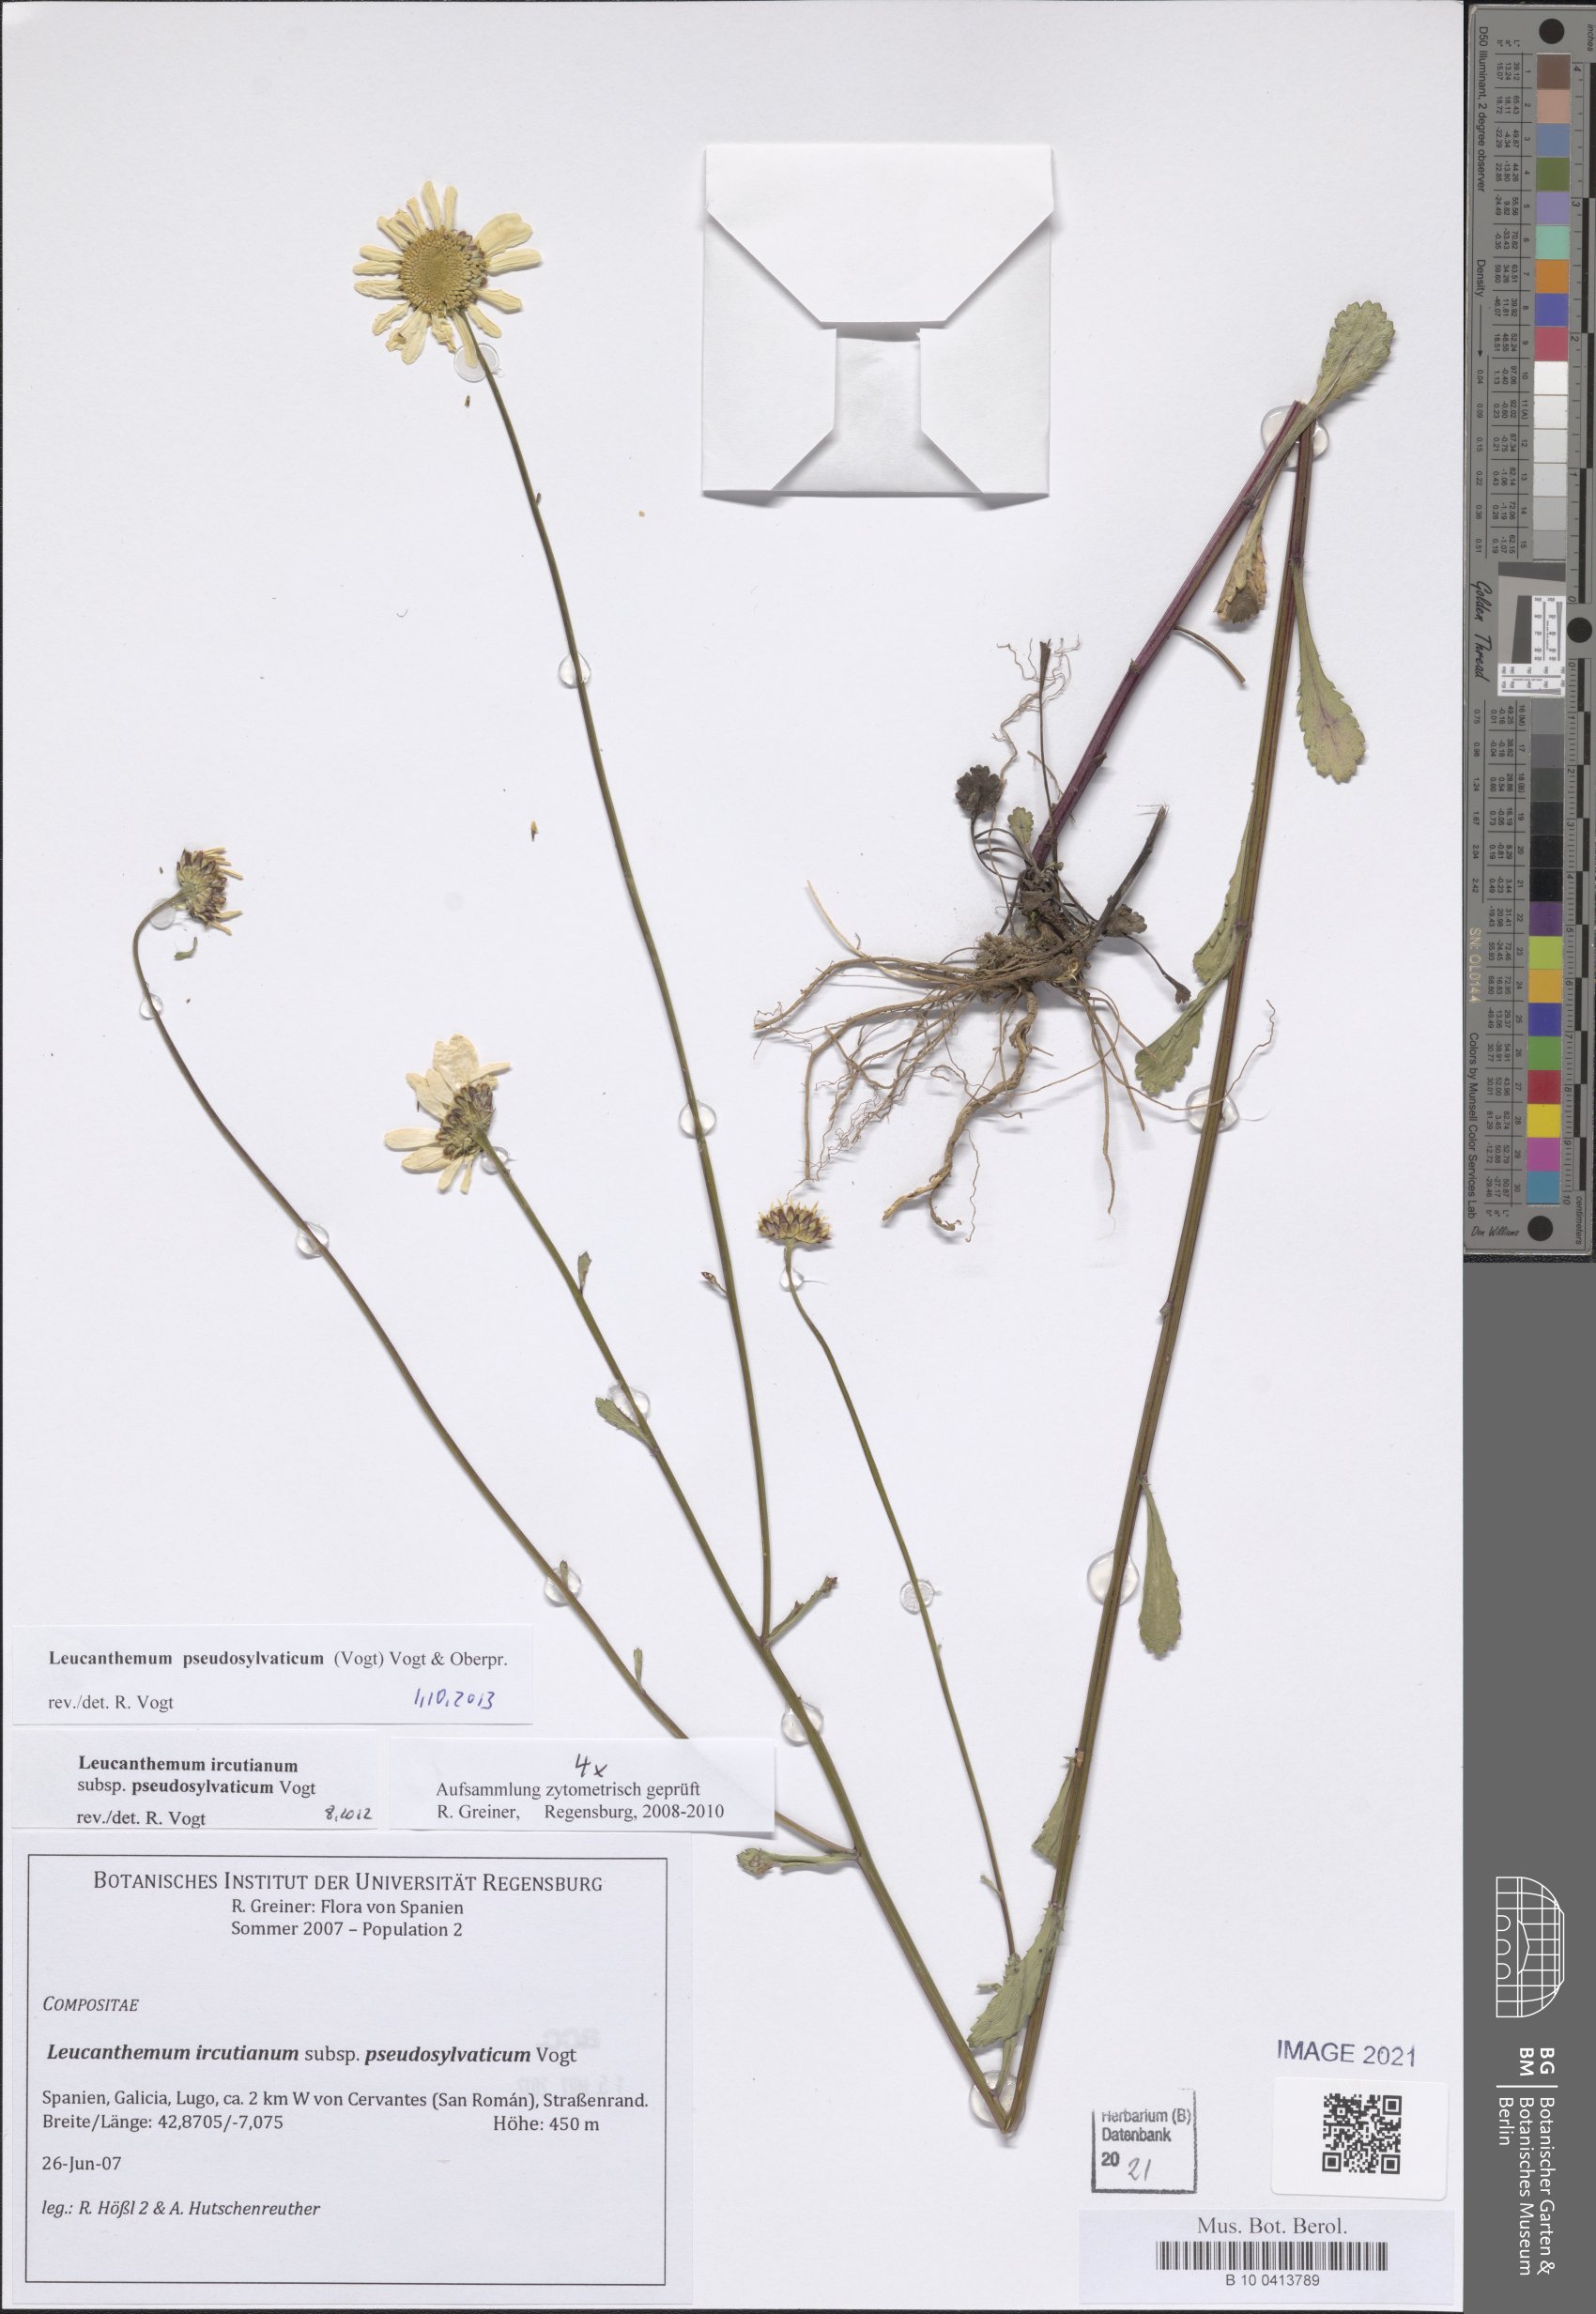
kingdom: Plantae
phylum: Tracheophyta
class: Magnoliopsida
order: Asterales
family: Asteraceae
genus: Leucanthemum
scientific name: Leucanthemum pseudosylvaticum
